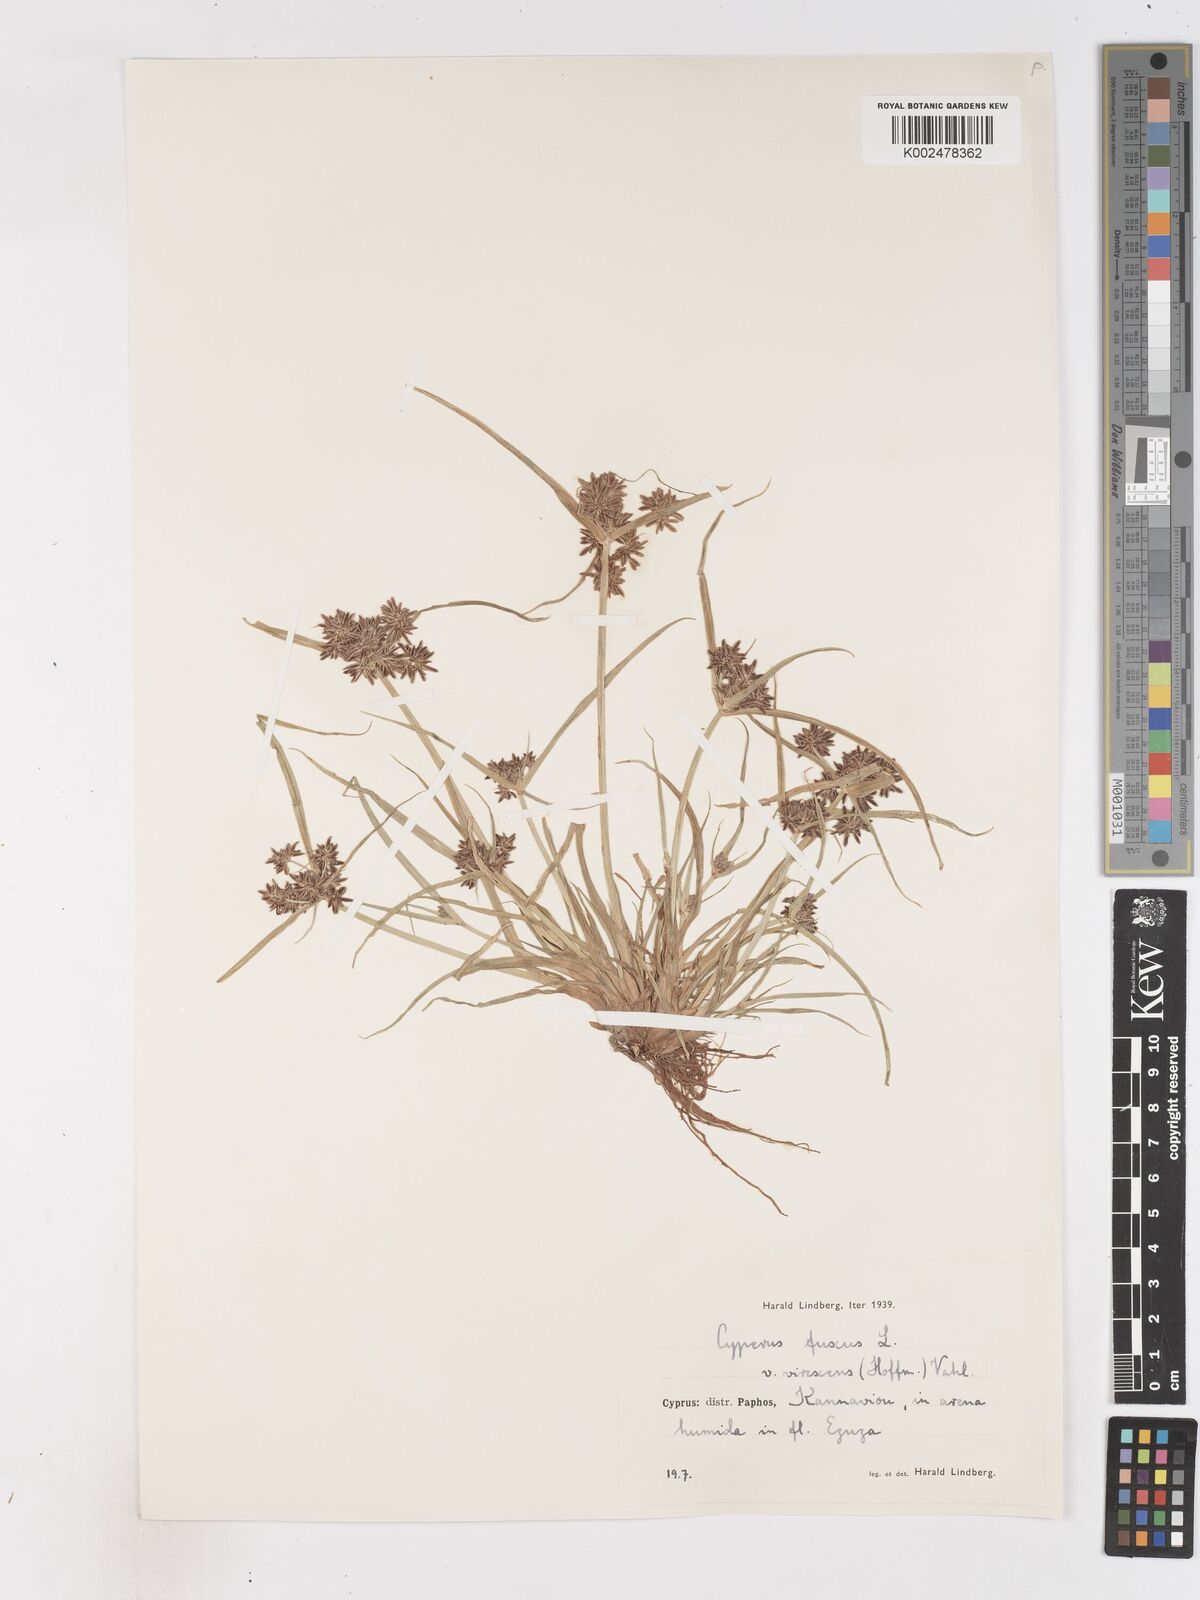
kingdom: Plantae
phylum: Tracheophyta
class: Liliopsida
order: Poales
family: Cyperaceae
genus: Cyperus
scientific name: Cyperus fuscus
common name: Brown galingale
